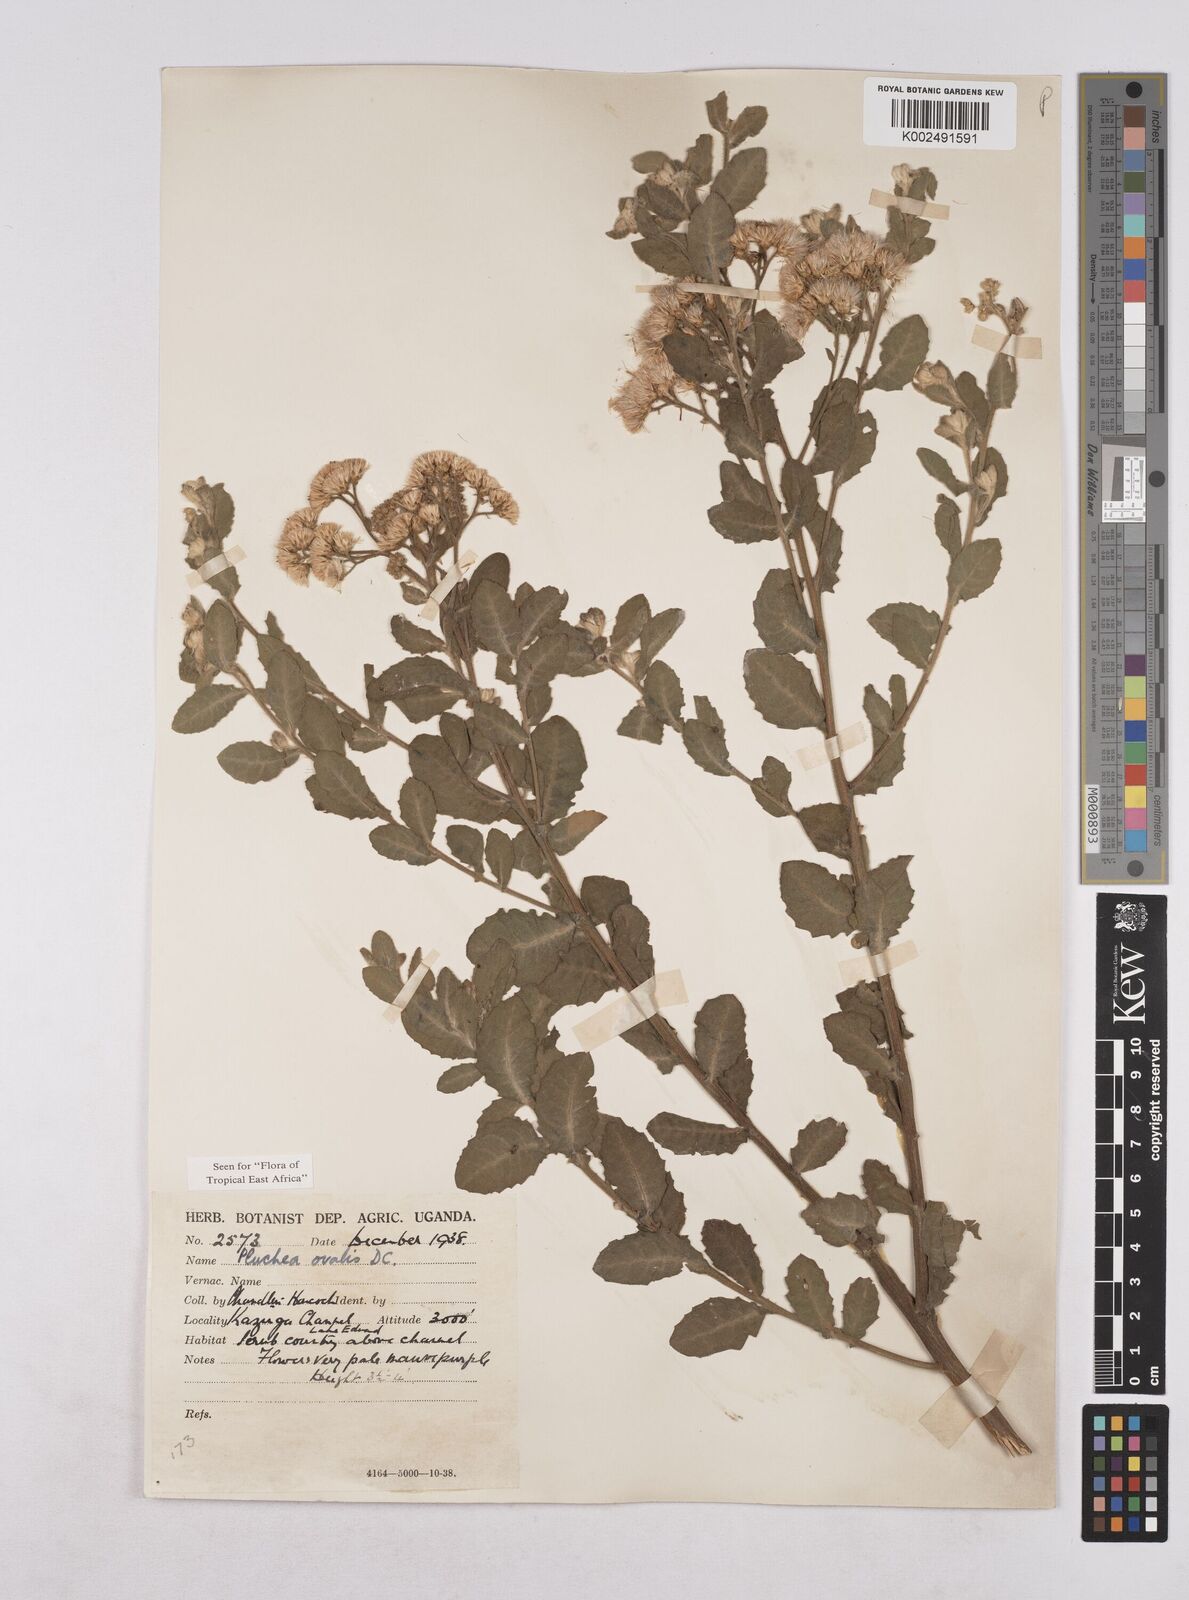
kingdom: Plantae
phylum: Tracheophyta
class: Magnoliopsida
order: Asterales
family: Asteraceae
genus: Pluchea
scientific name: Pluchea ovalis
